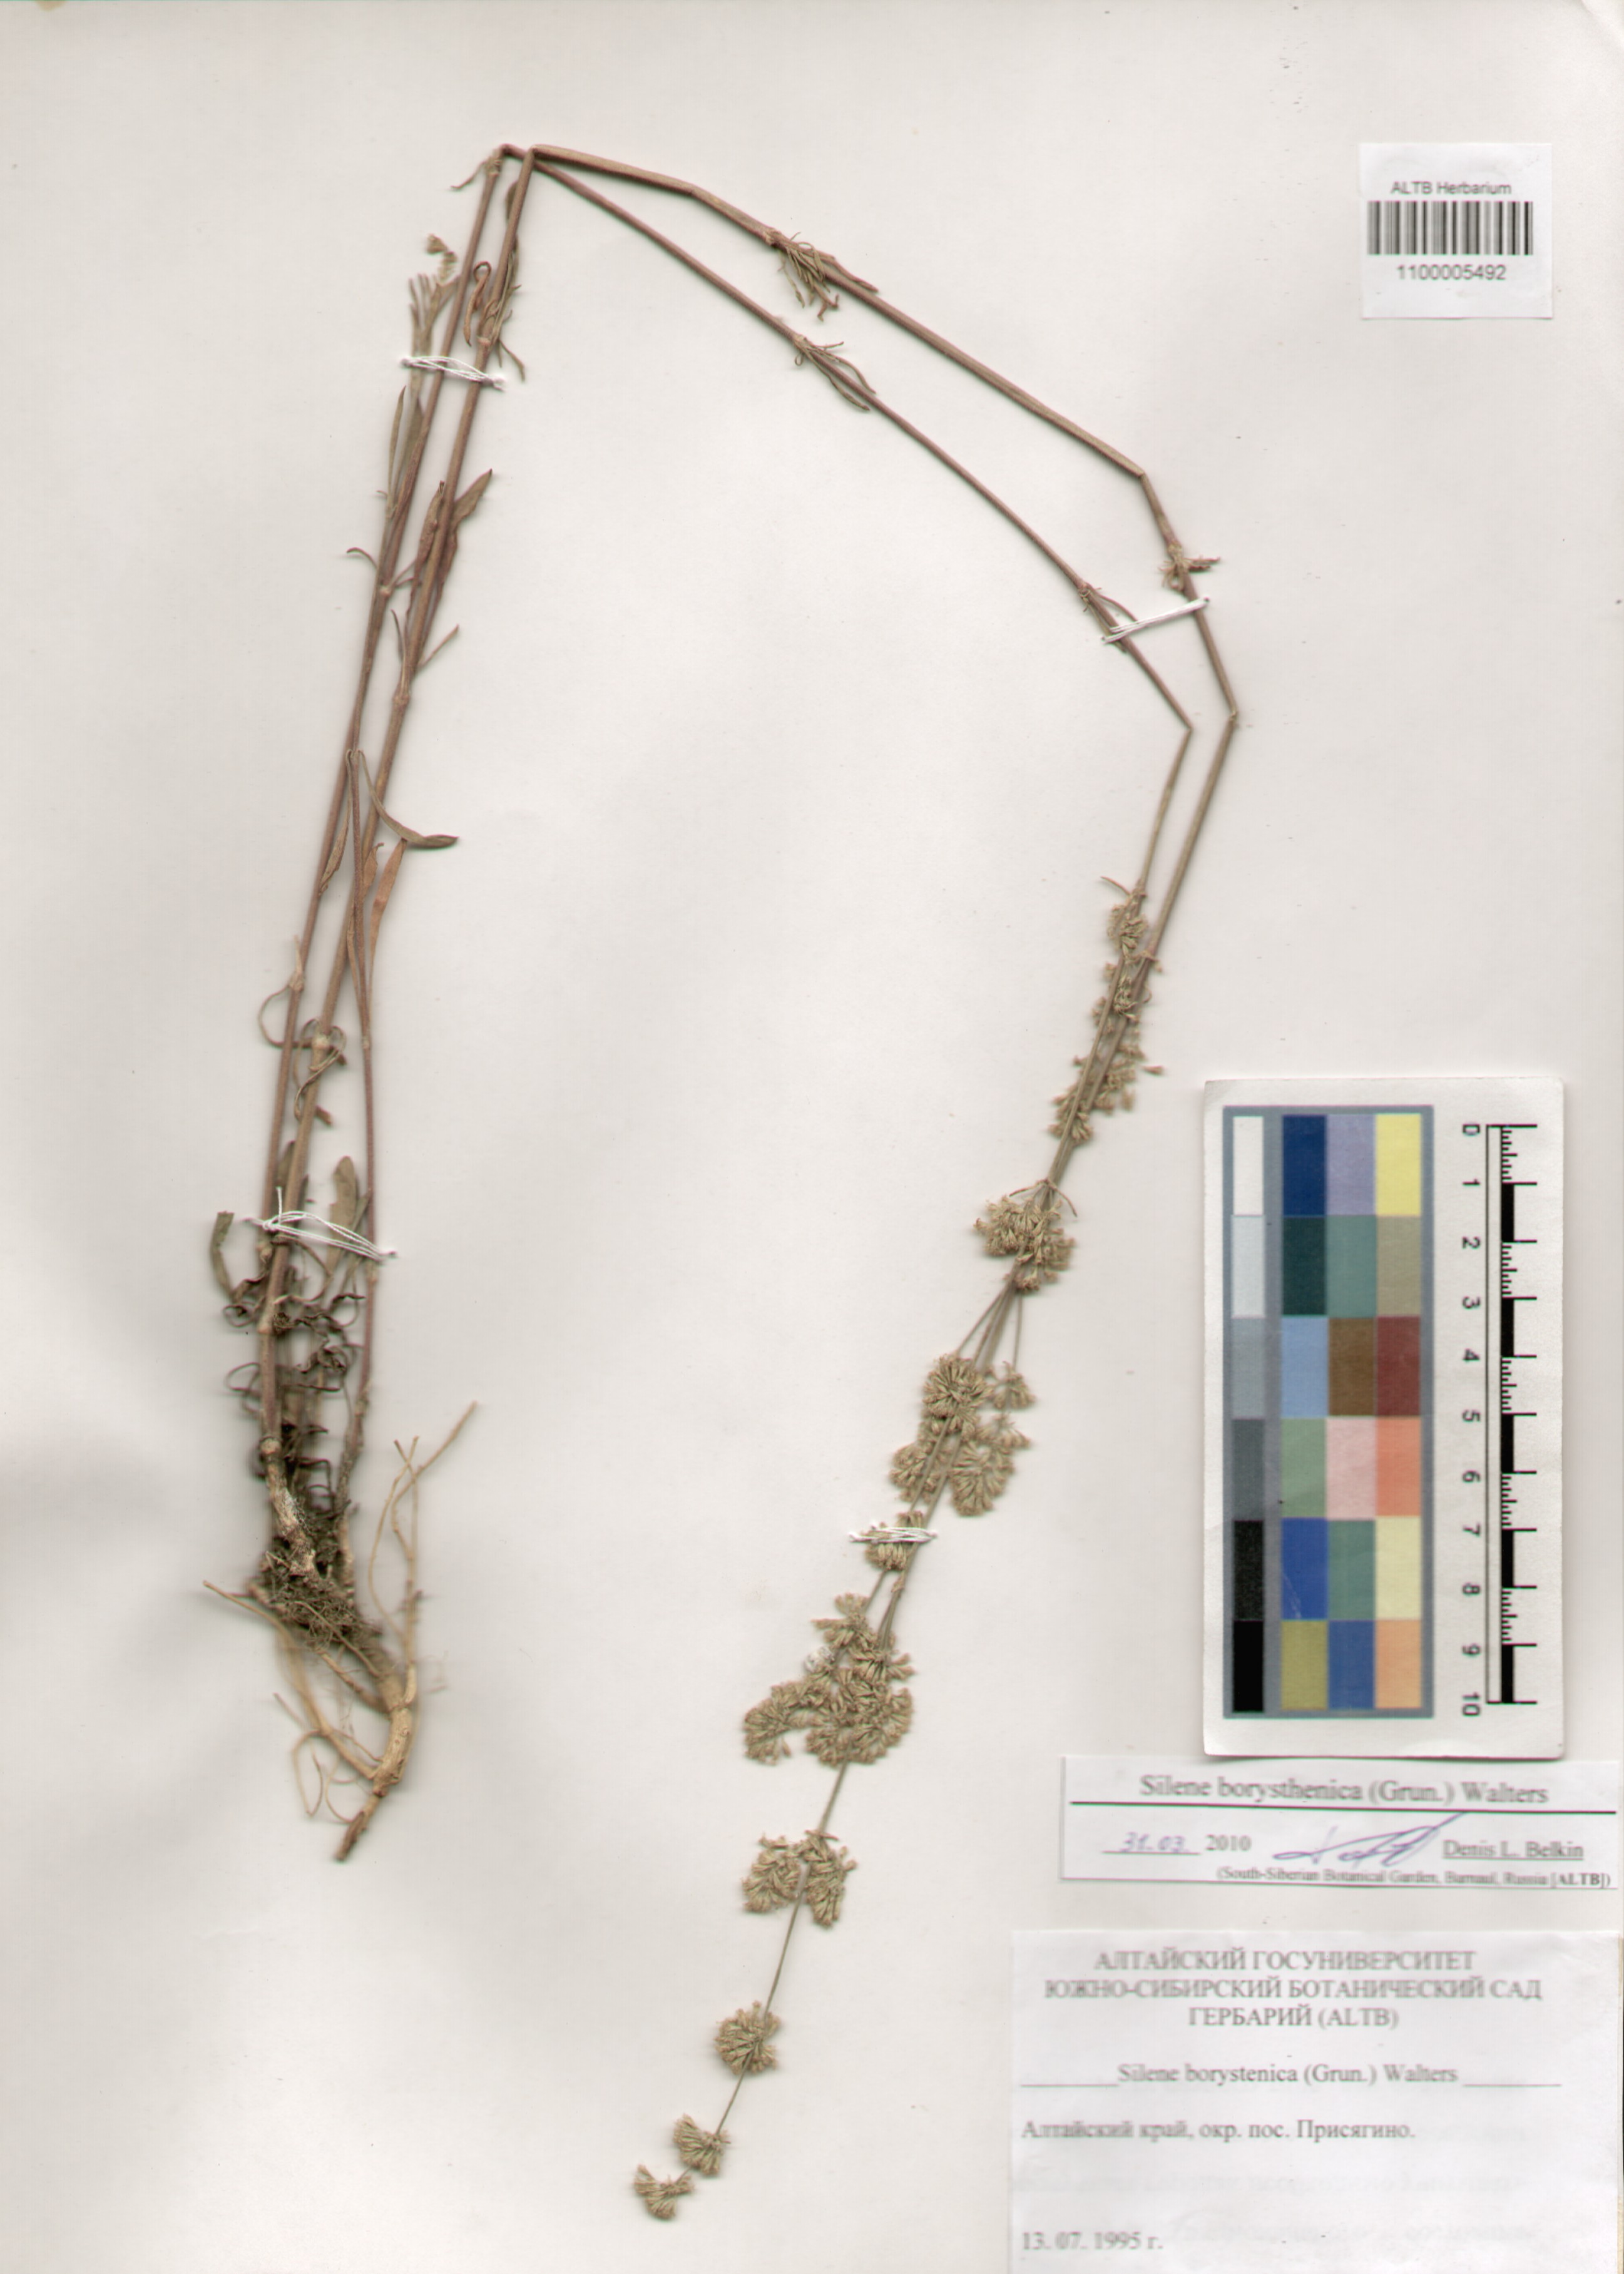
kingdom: Plantae
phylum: Tracheophyta
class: Magnoliopsida
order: Caryophyllales
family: Caryophyllaceae
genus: Silene
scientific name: Silene borysthenica
